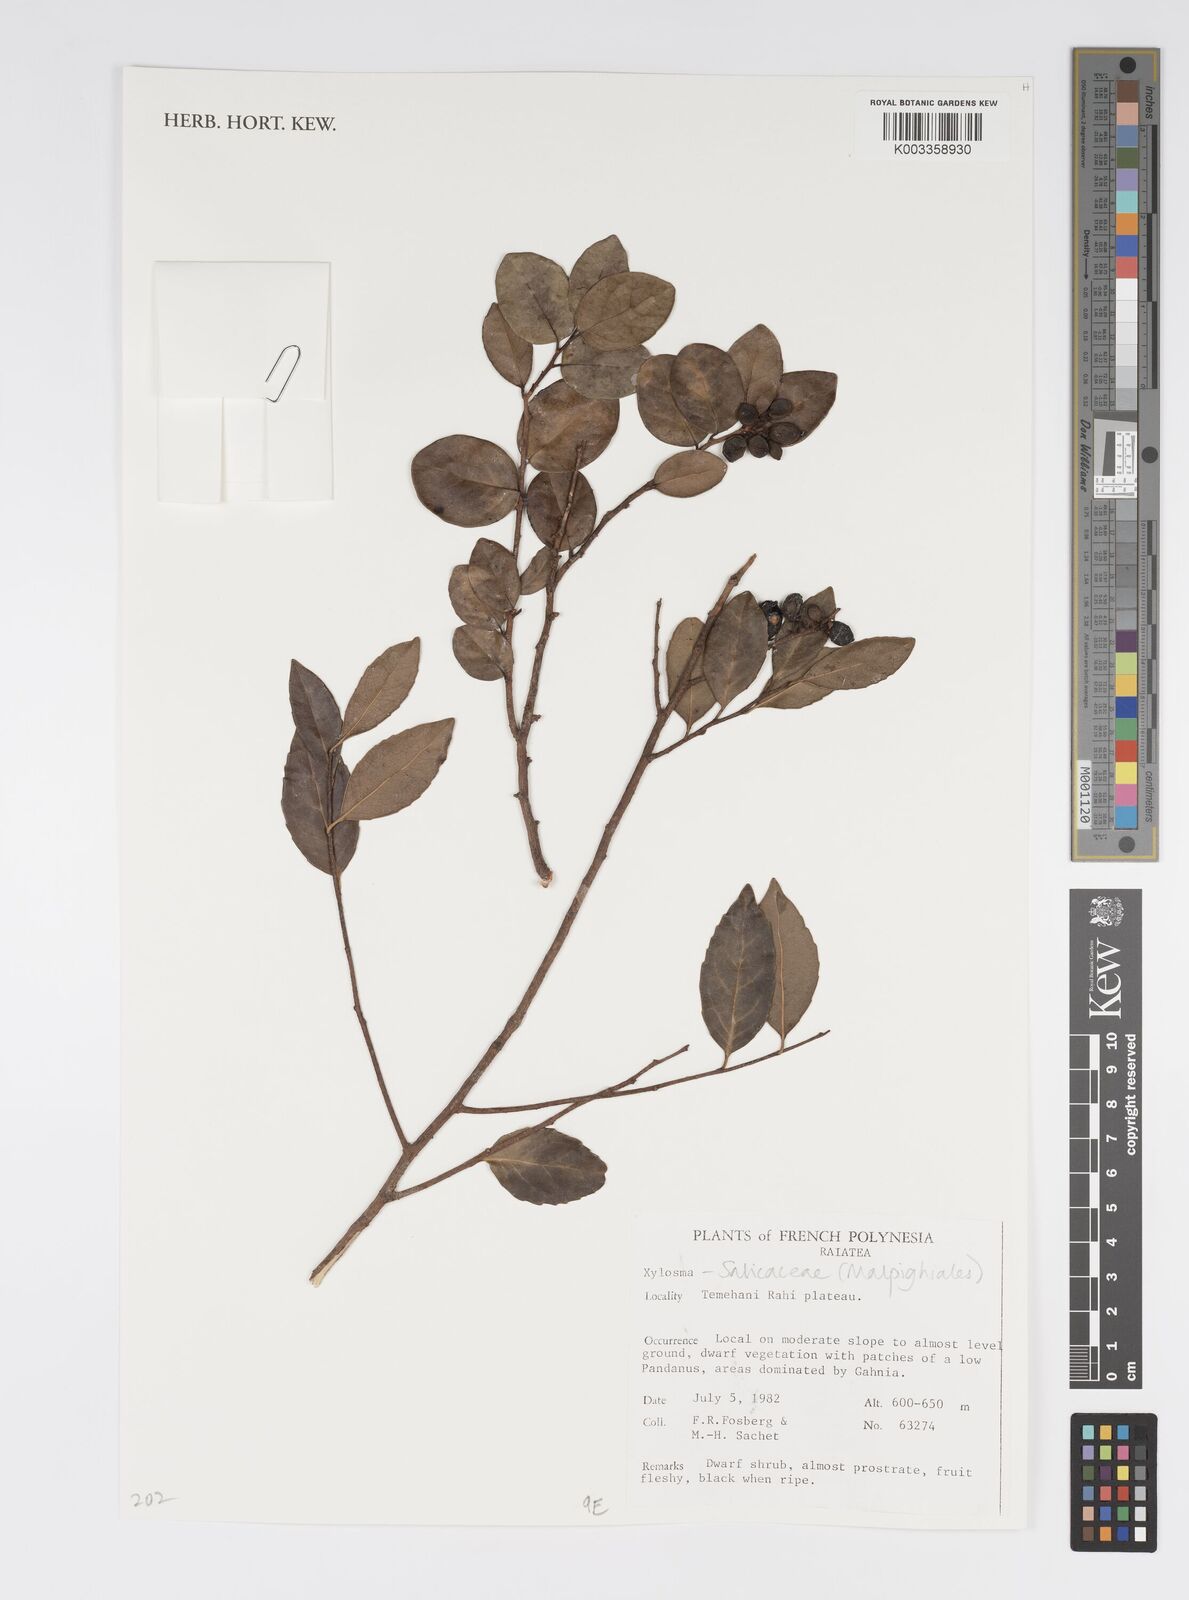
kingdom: Plantae
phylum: Tracheophyta
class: Magnoliopsida
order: Malpighiales
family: Salicaceae
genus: Xylosma
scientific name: Xylosma
